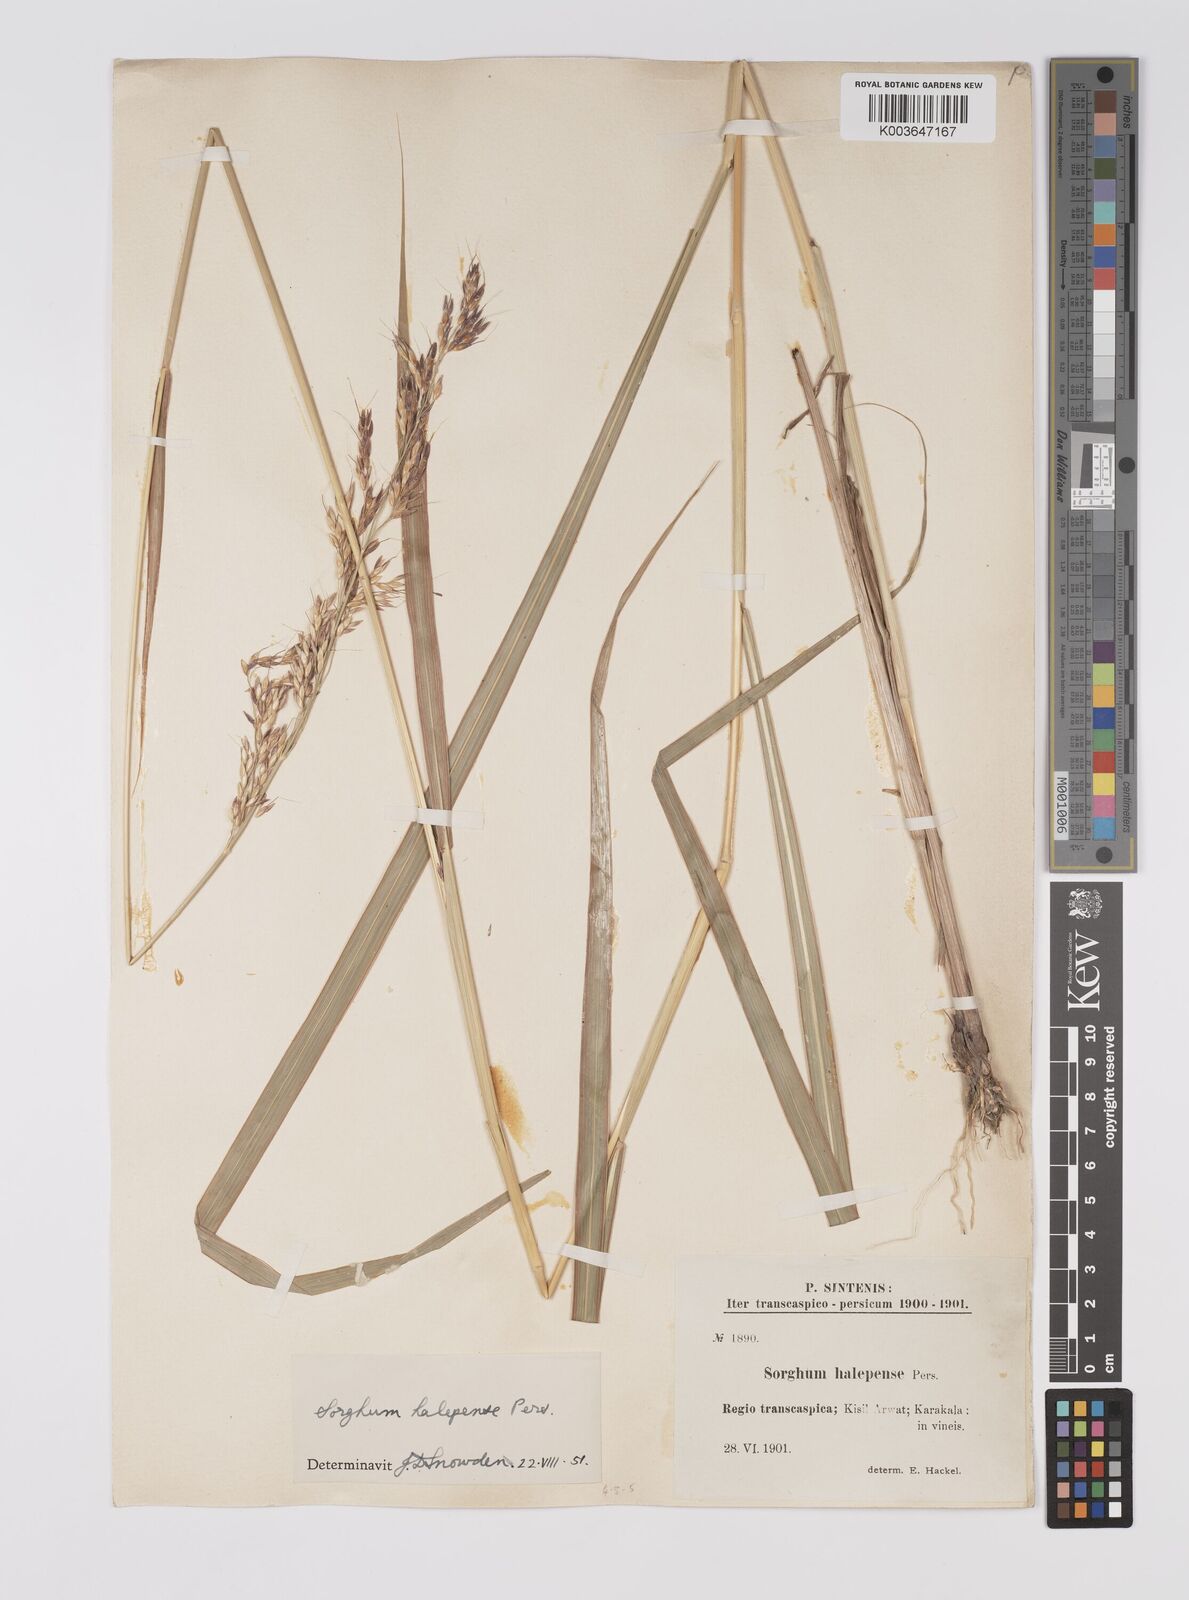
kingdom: Plantae
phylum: Tracheophyta
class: Liliopsida
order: Poales
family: Poaceae
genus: Sorghum
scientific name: Sorghum halepense
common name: Johnson-grass
